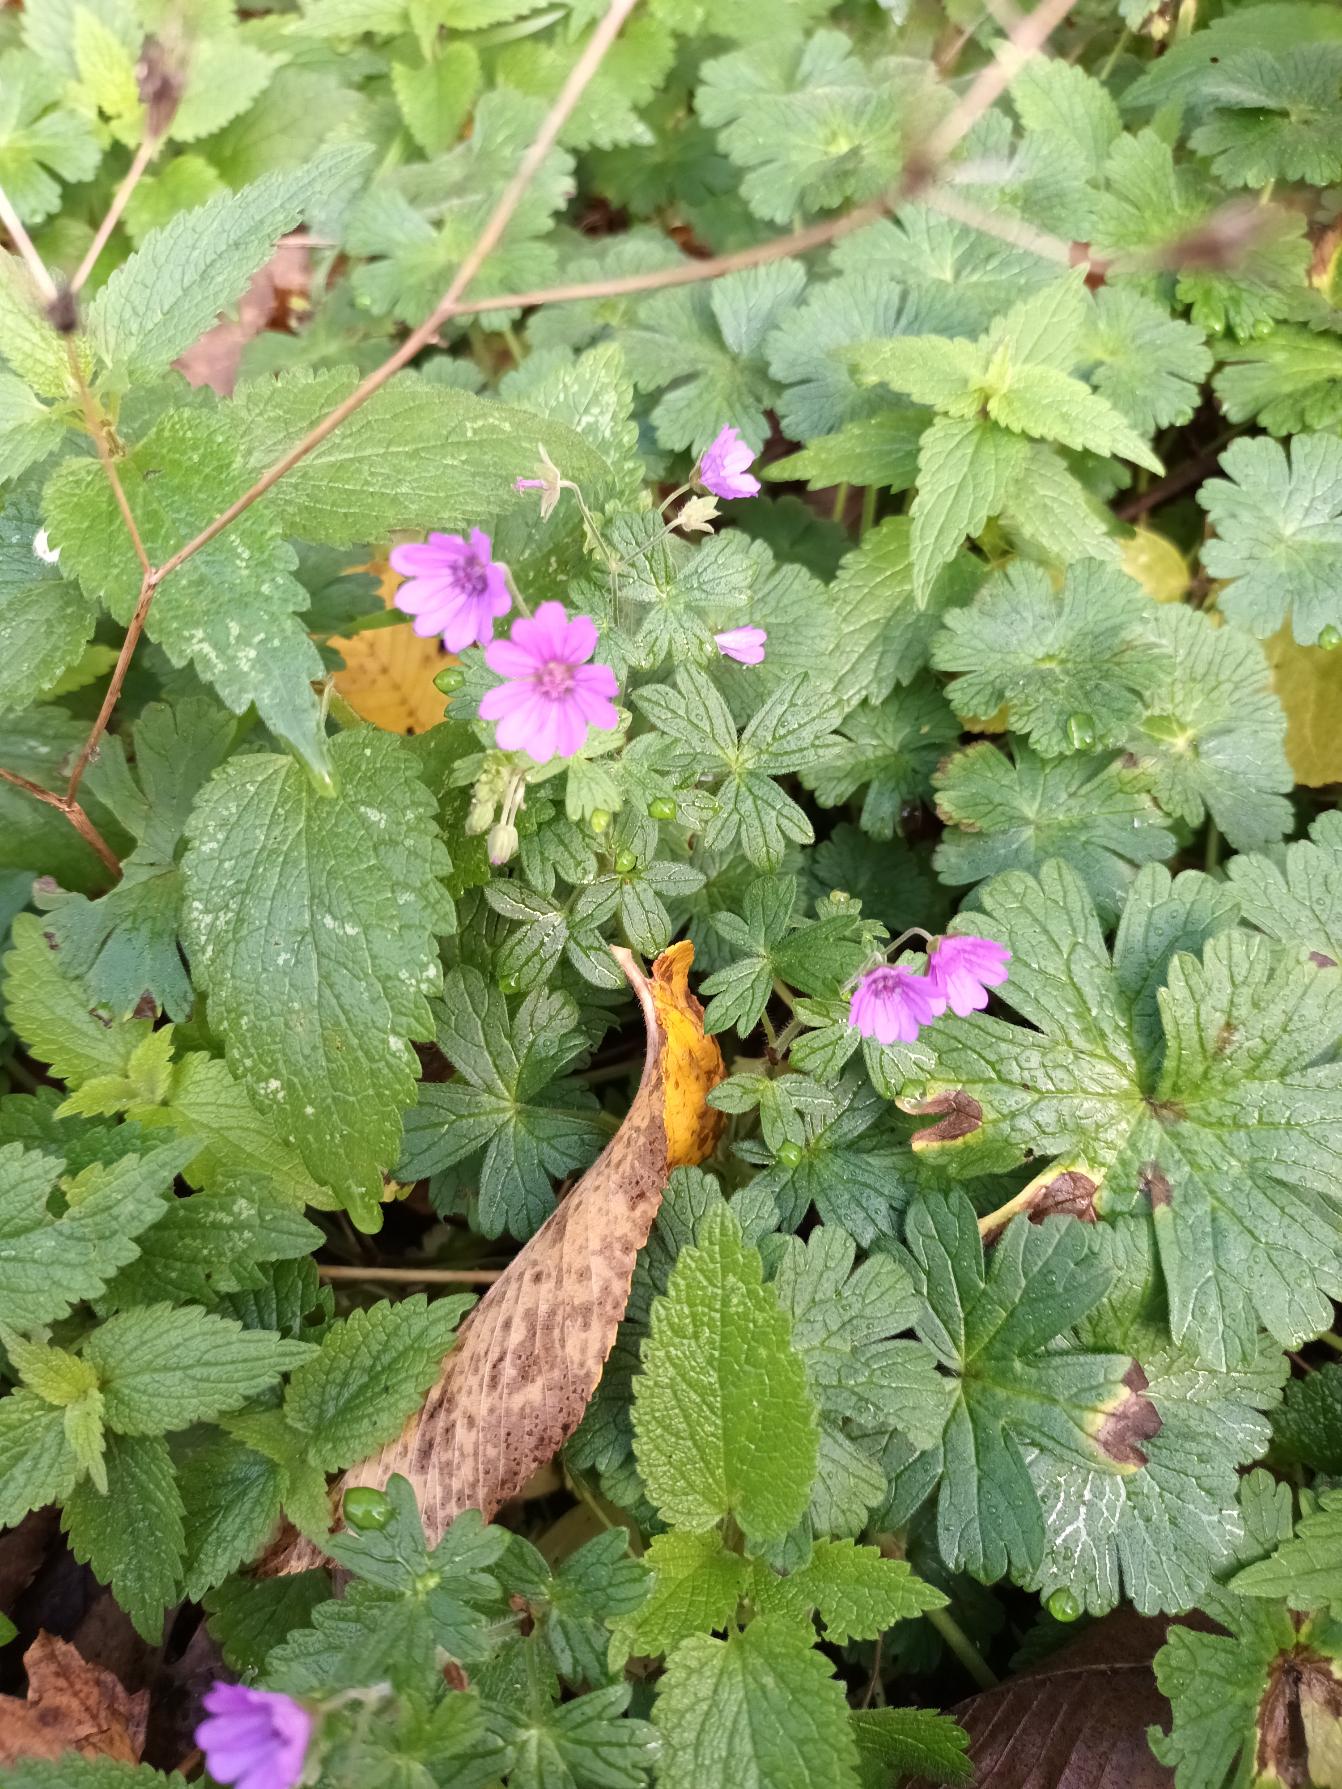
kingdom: Plantae
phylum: Tracheophyta
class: Magnoliopsida
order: Geraniales
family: Geraniaceae
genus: Geranium
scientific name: Geranium pyrenaicum
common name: Pyrenæisk storkenæb
